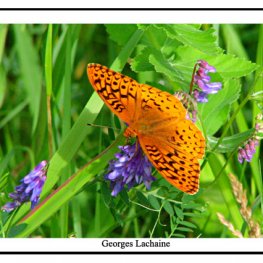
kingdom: Animalia
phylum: Arthropoda
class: Insecta
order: Lepidoptera
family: Nymphalidae
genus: Speyeria
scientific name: Speyeria cybele
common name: Great Spangled Fritillary
